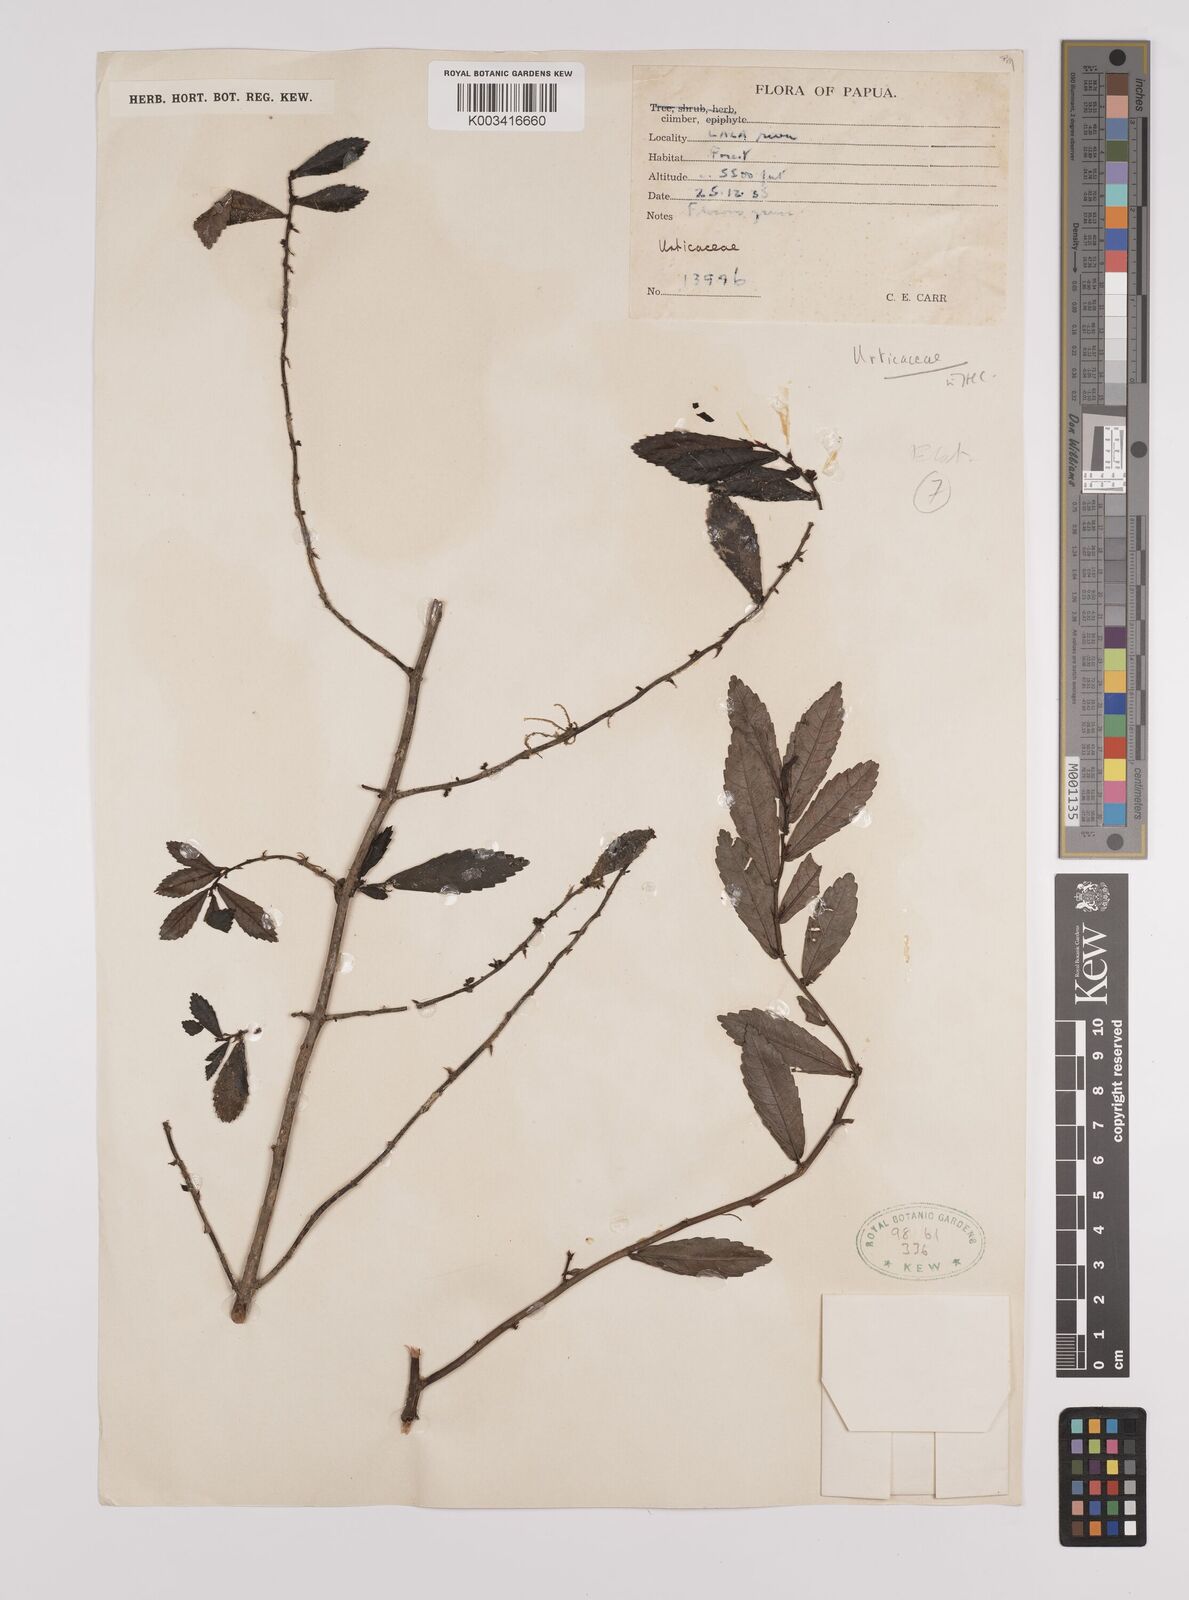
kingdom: Plantae
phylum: Tracheophyta
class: Magnoliopsida
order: Rosales
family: Urticaceae
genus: Elatostema
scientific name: Elatostema
